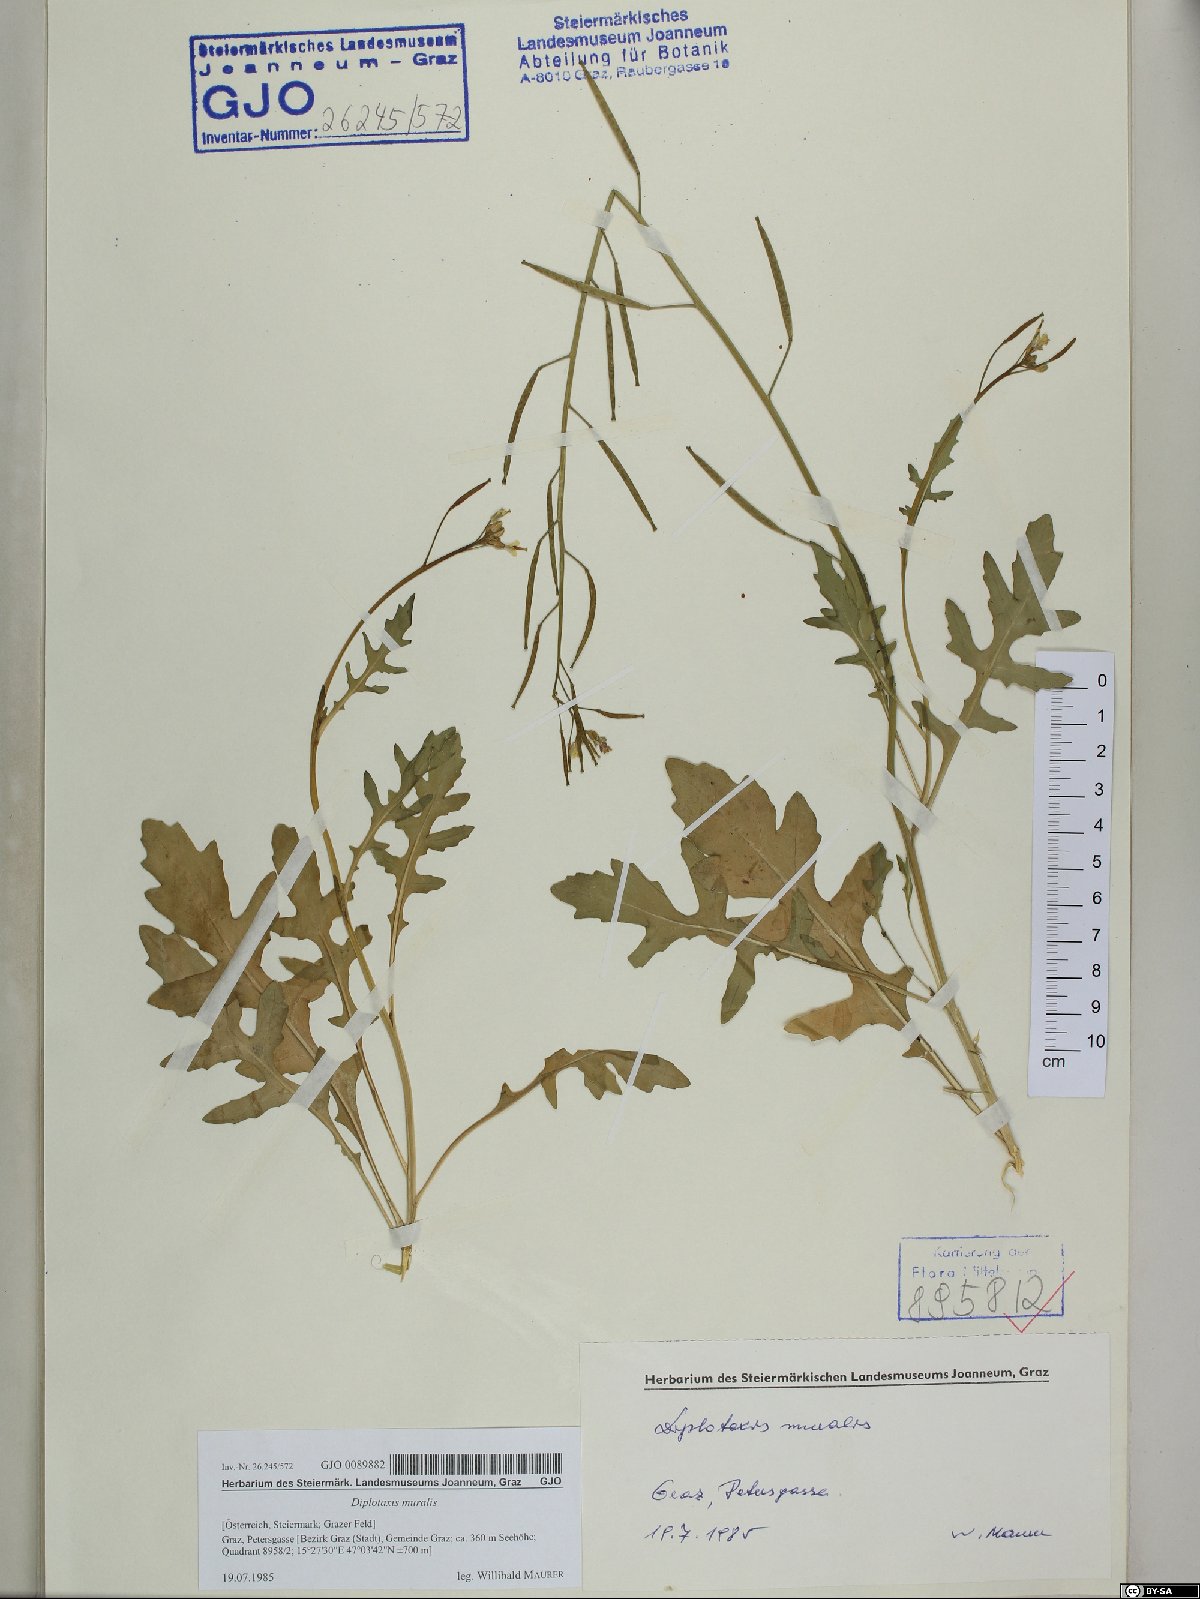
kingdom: Plantae
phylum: Tracheophyta
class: Magnoliopsida
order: Brassicales
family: Brassicaceae
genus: Diplotaxis
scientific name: Diplotaxis muralis
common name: Annual wall-rocket
